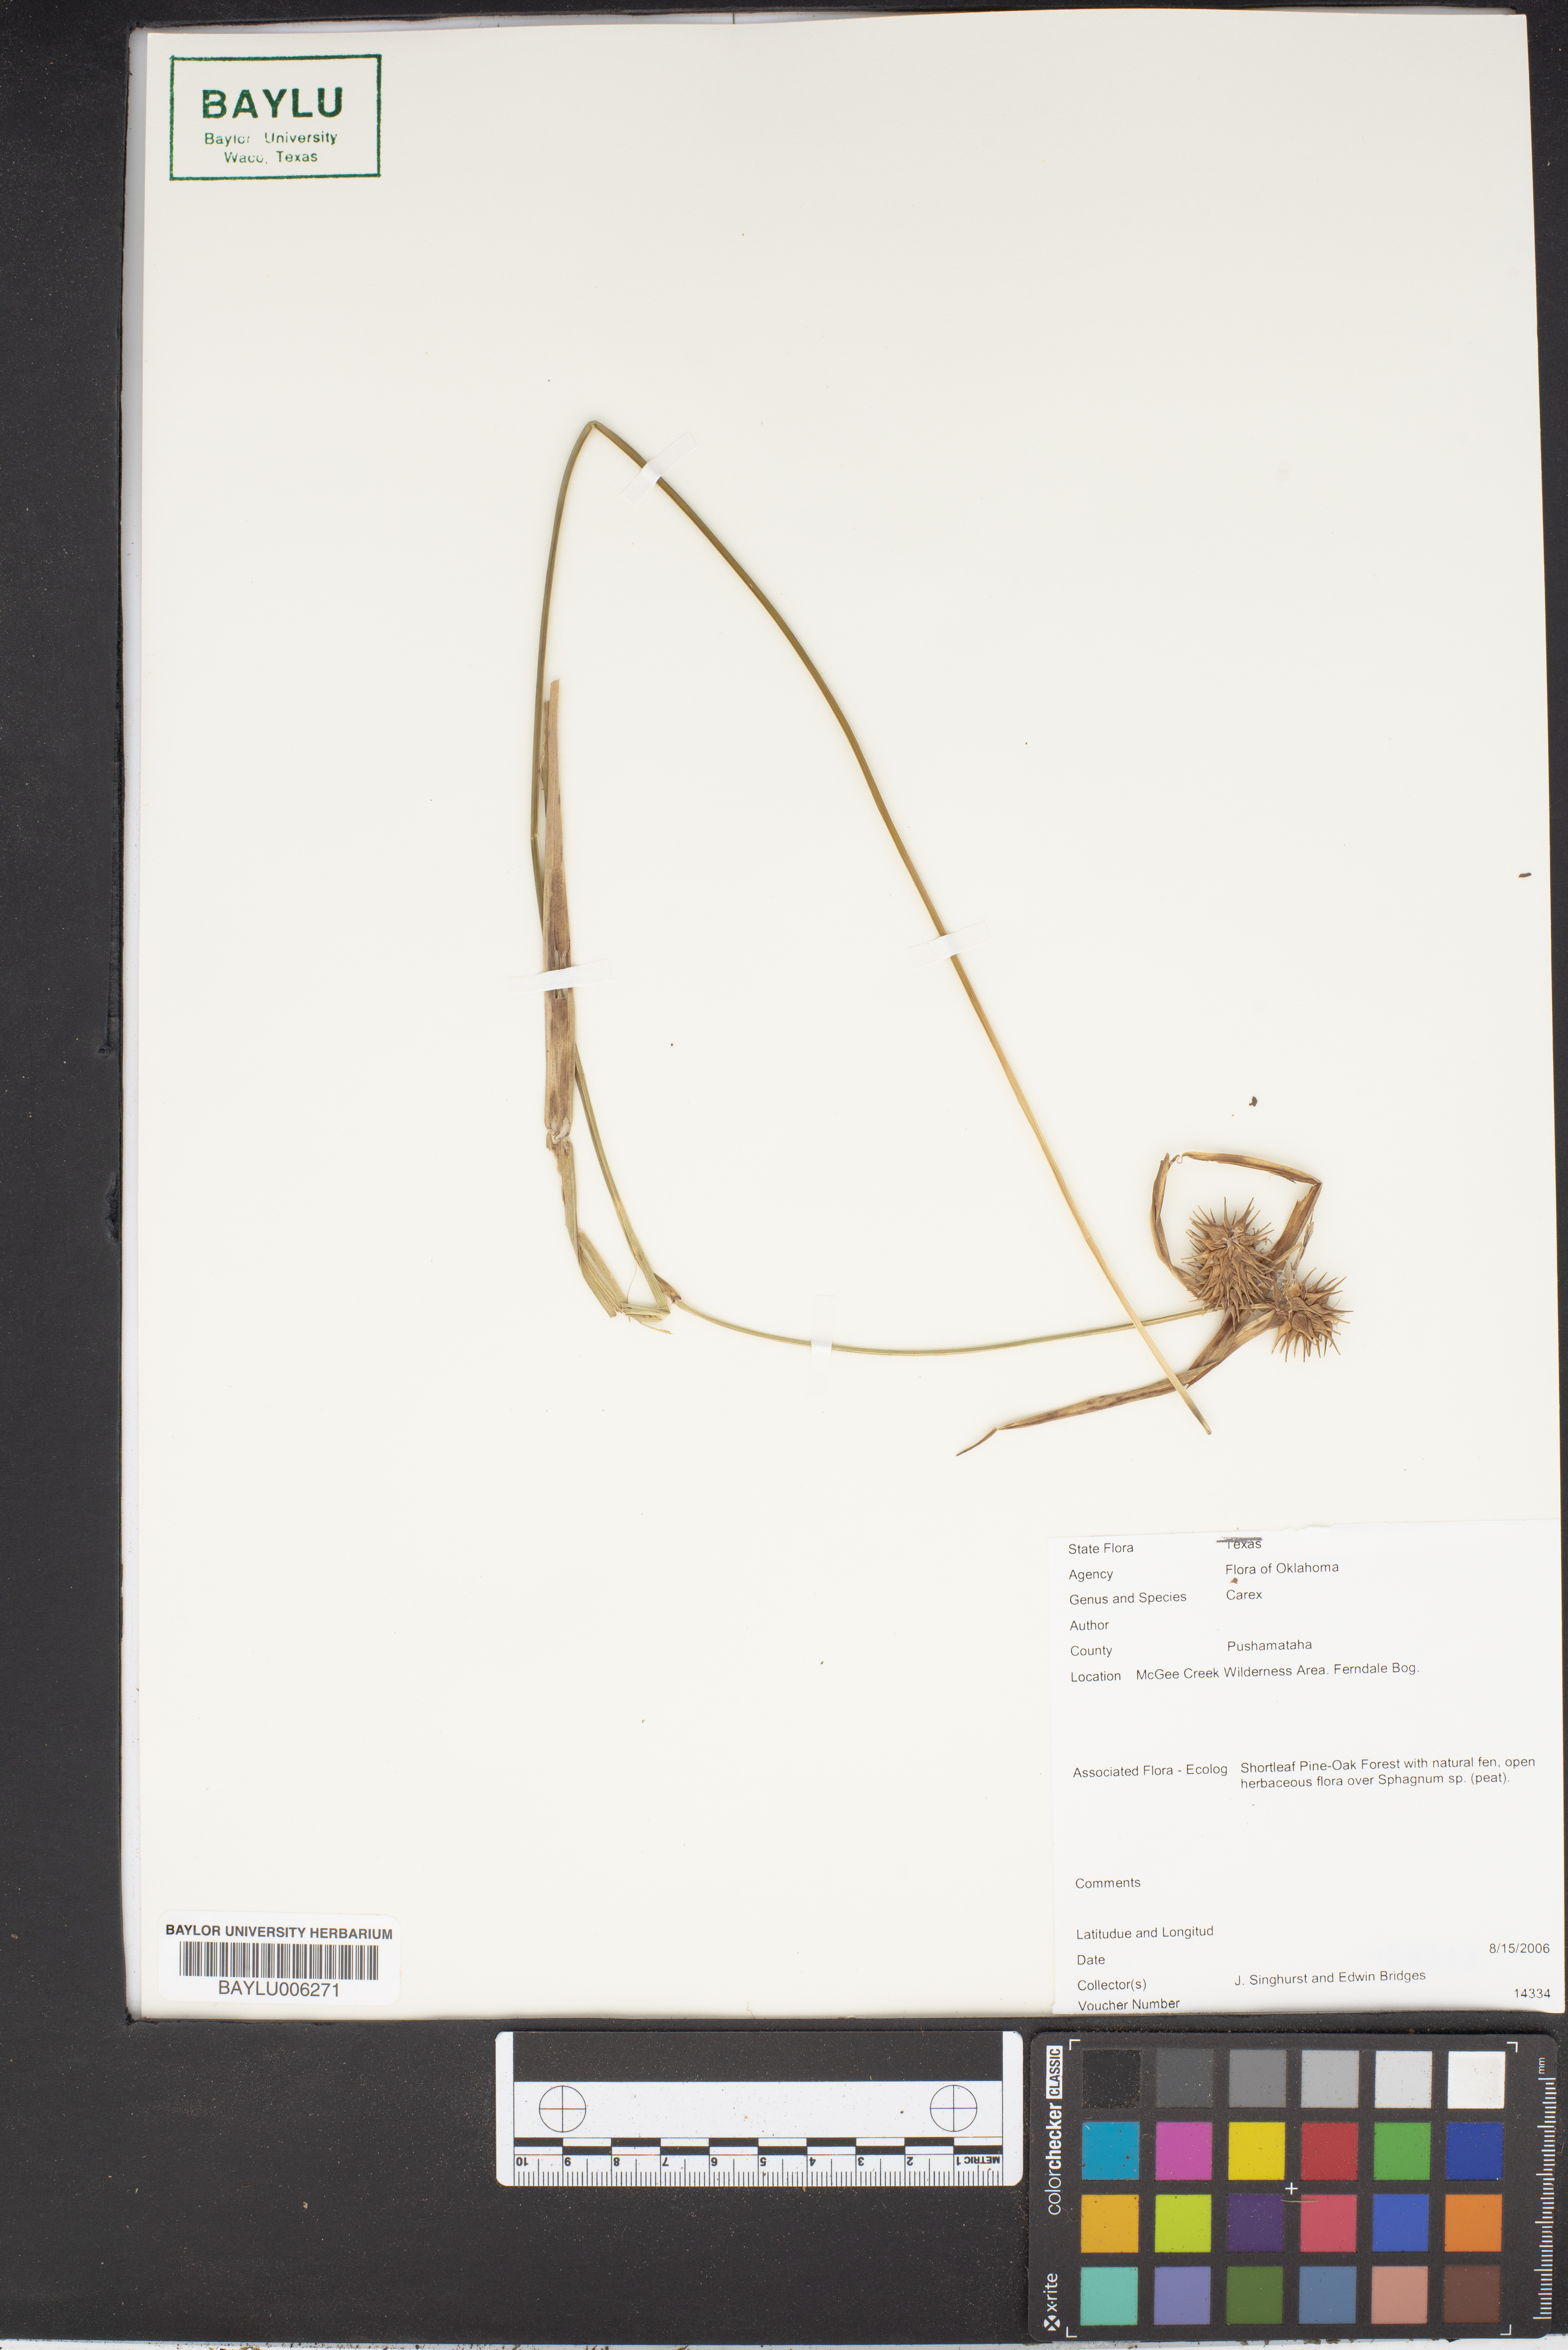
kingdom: Plantae
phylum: Tracheophyta
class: Liliopsida
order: Poales
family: Cyperaceae
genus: Carex
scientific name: Carex louisianica
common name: Louisiana sedge
